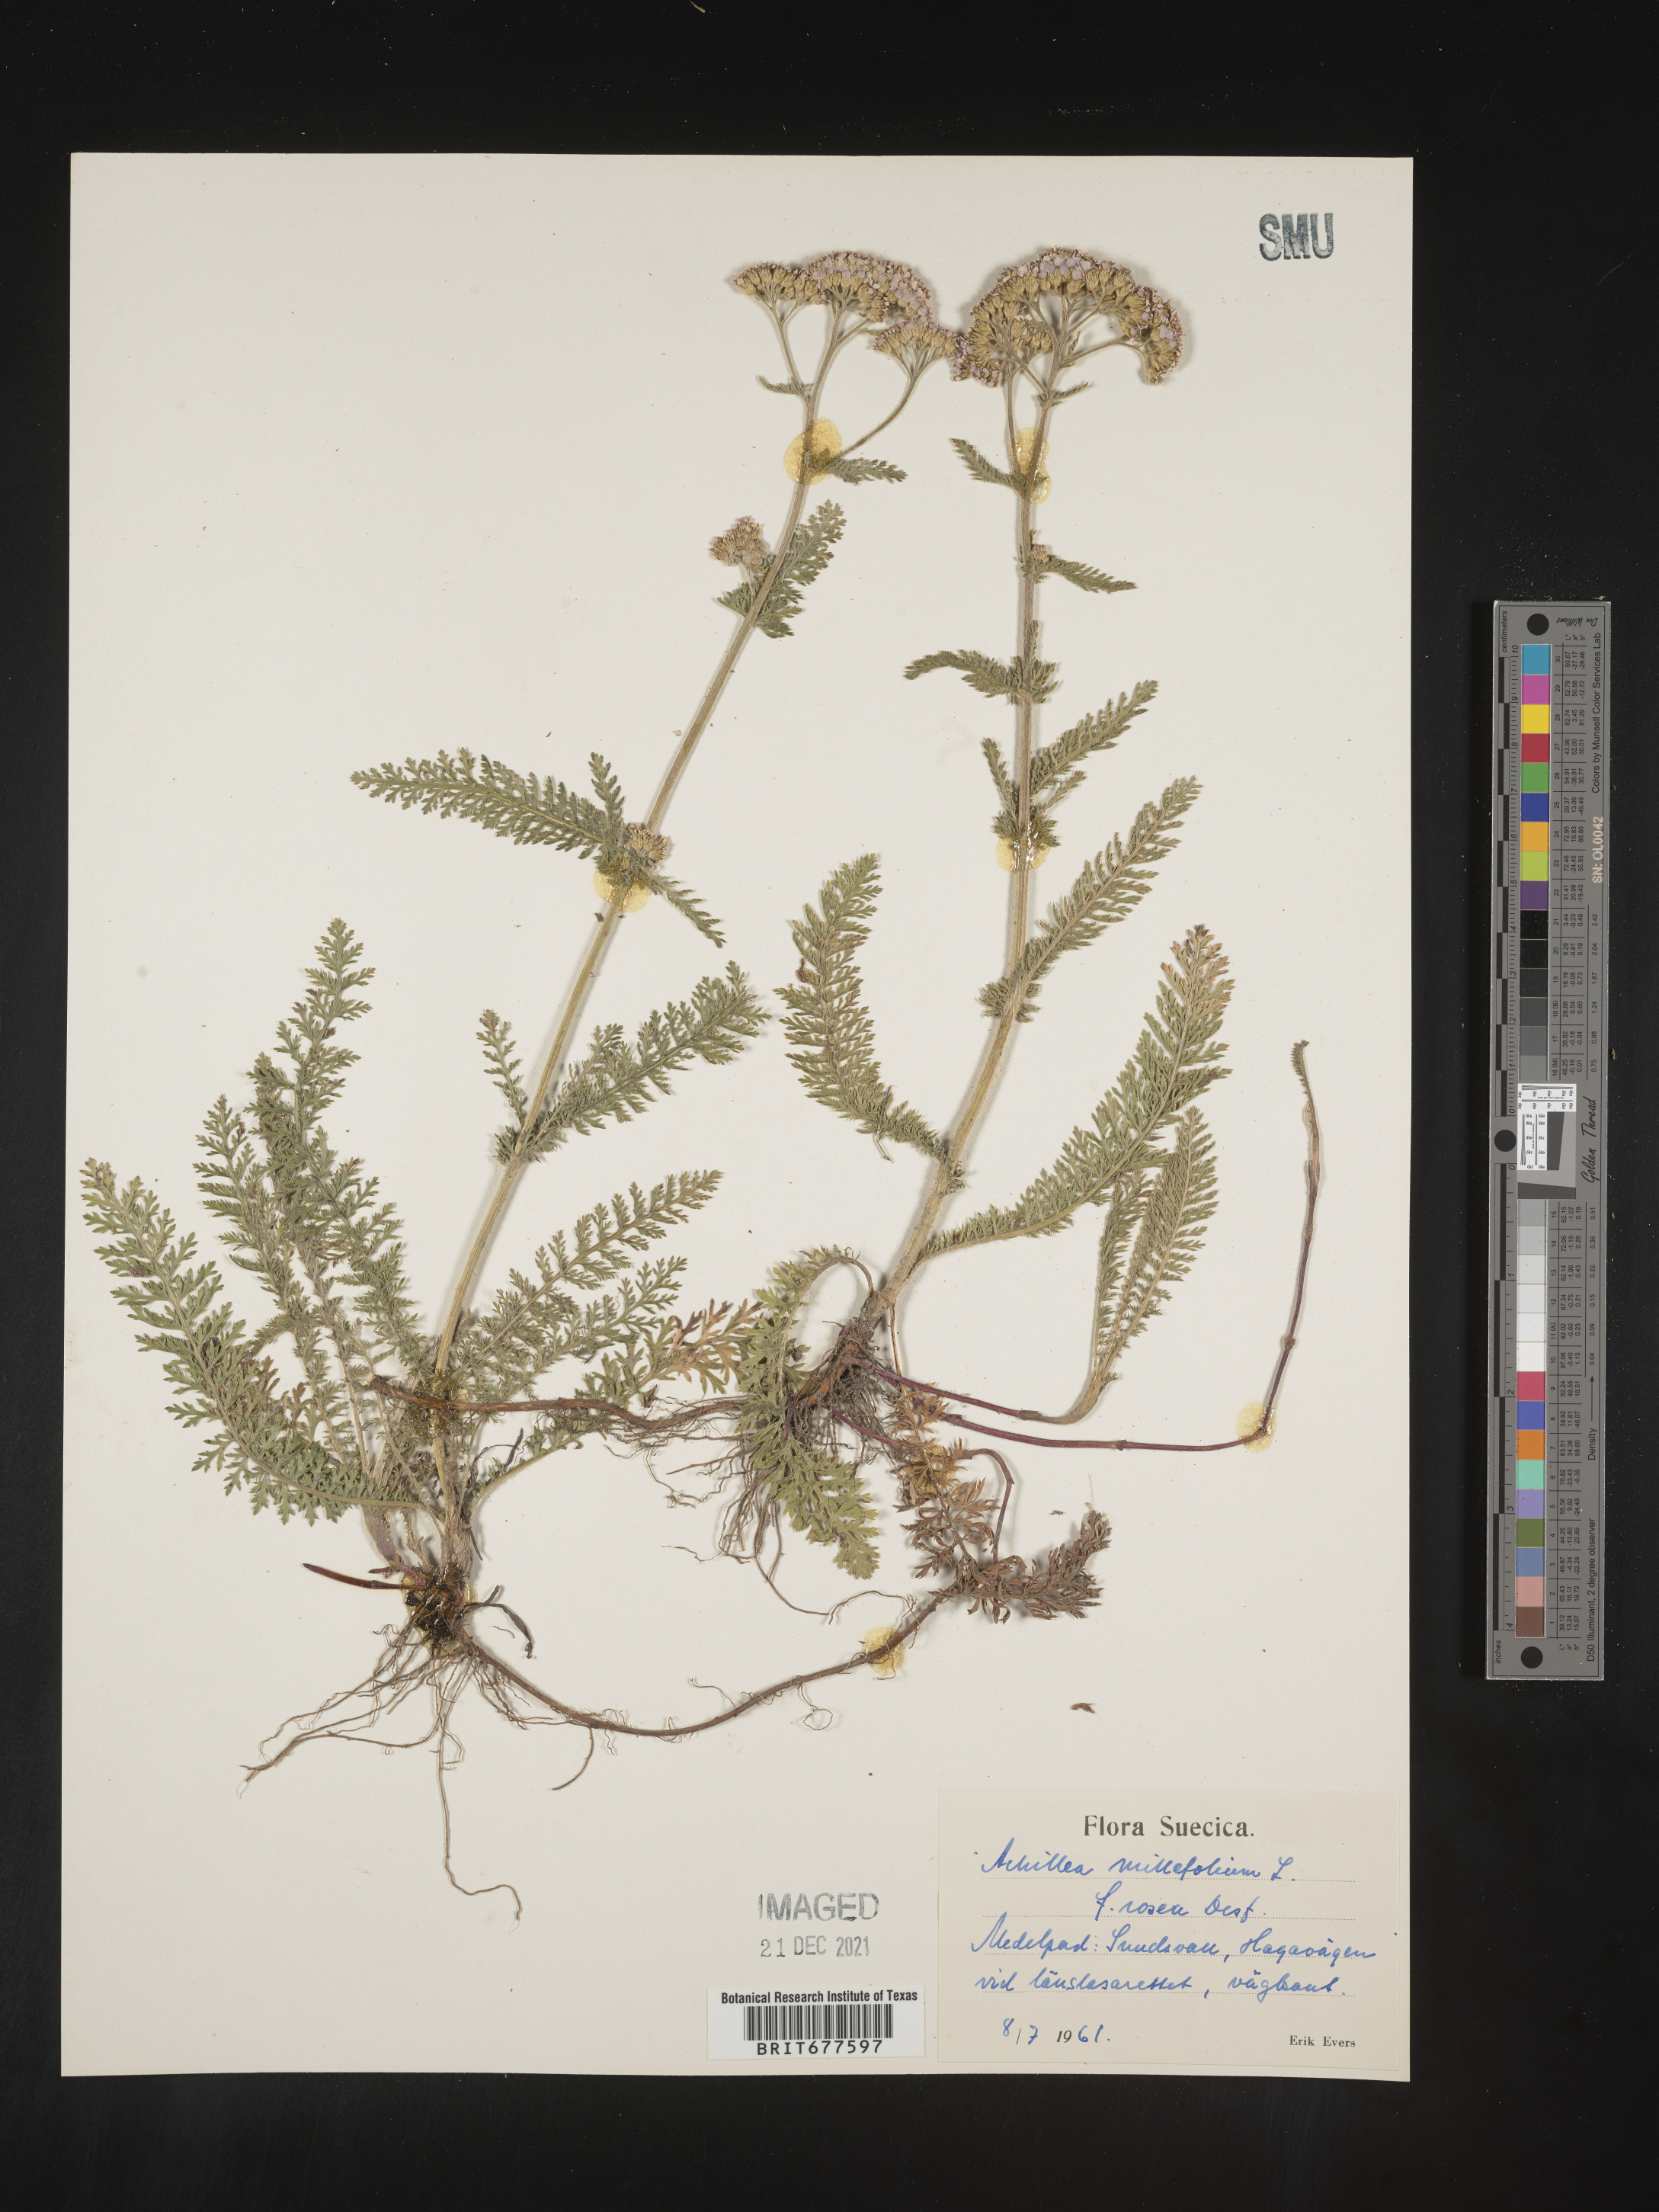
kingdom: Plantae
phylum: Tracheophyta
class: Magnoliopsida
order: Asterales
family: Asteraceae
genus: Achillea
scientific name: Achillea millefolium
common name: Yarrow
